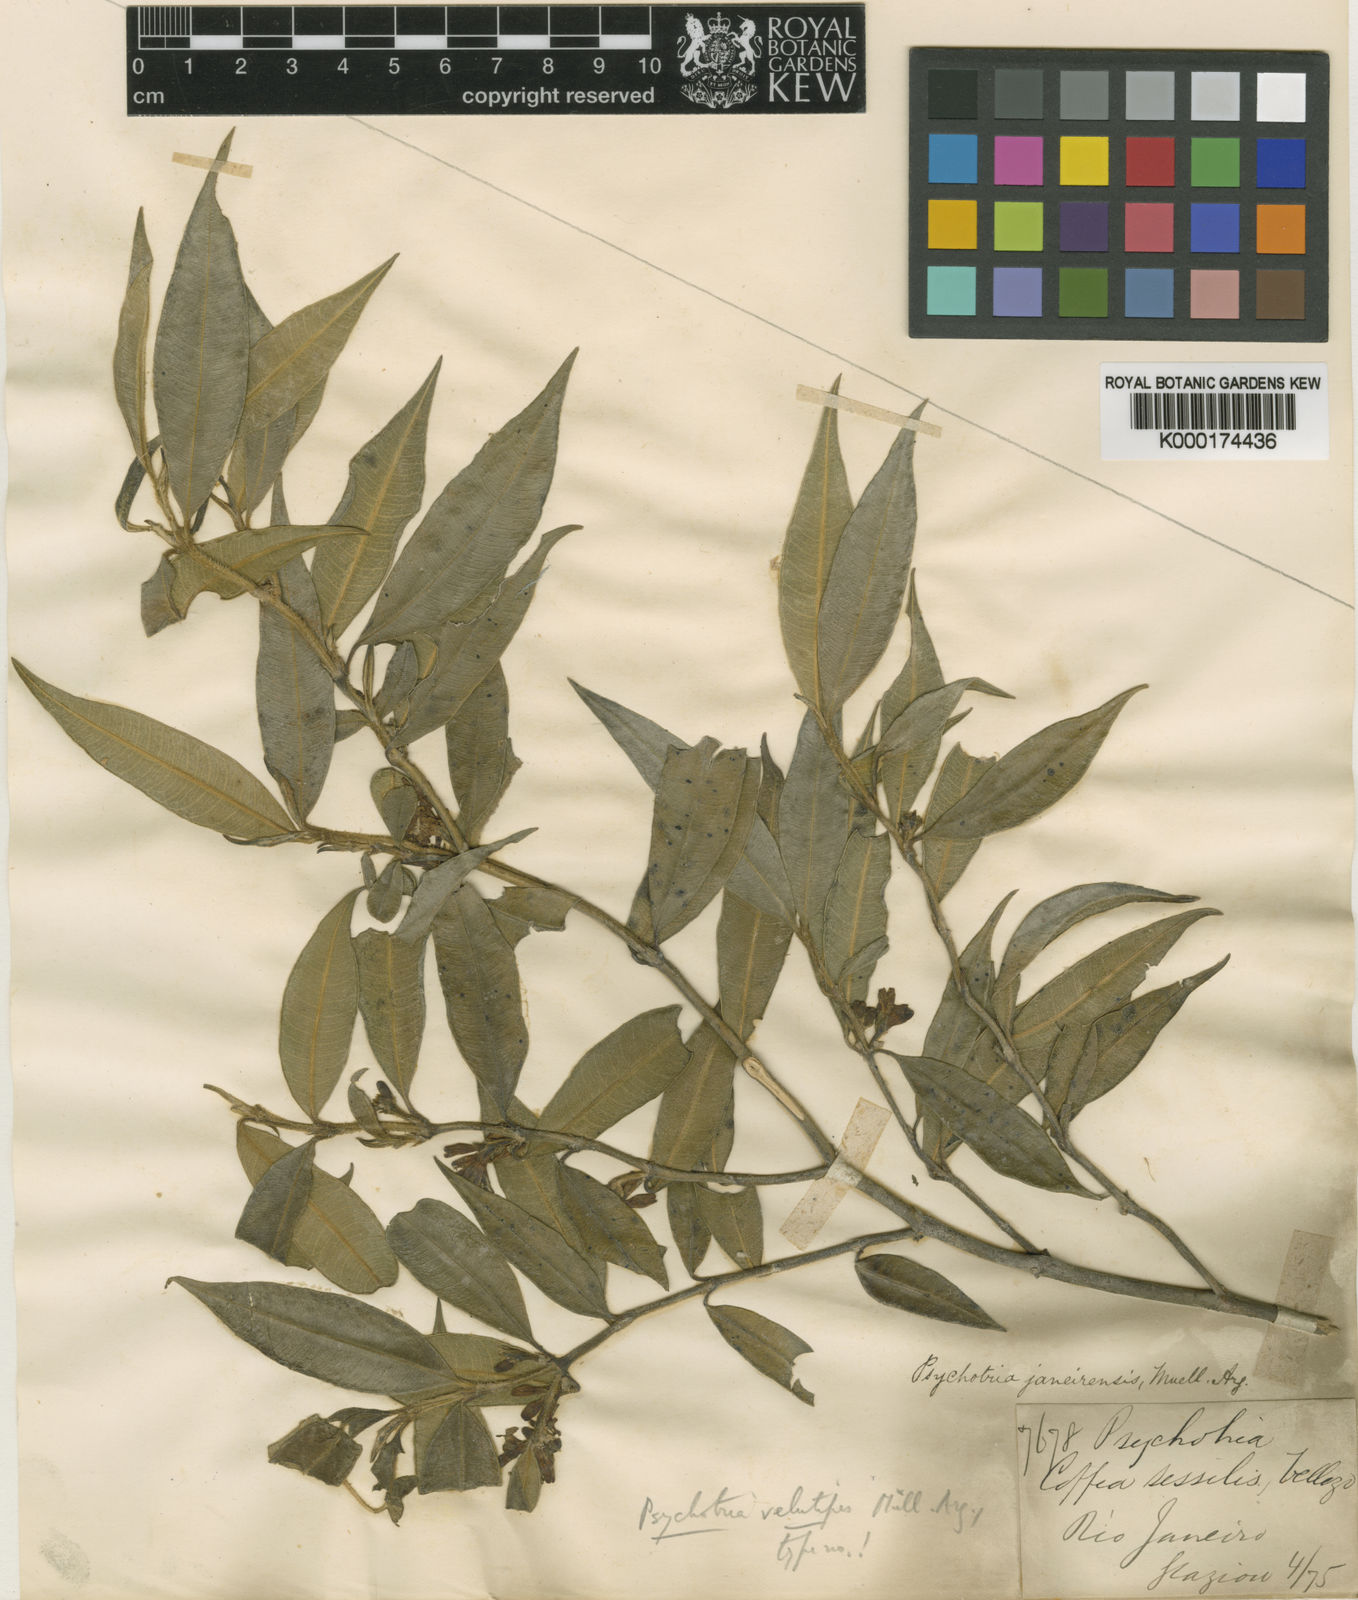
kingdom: Plantae
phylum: Tracheophyta
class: Magnoliopsida
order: Gentianales
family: Rubiaceae
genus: Palicourea
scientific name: Palicourea sessilis
